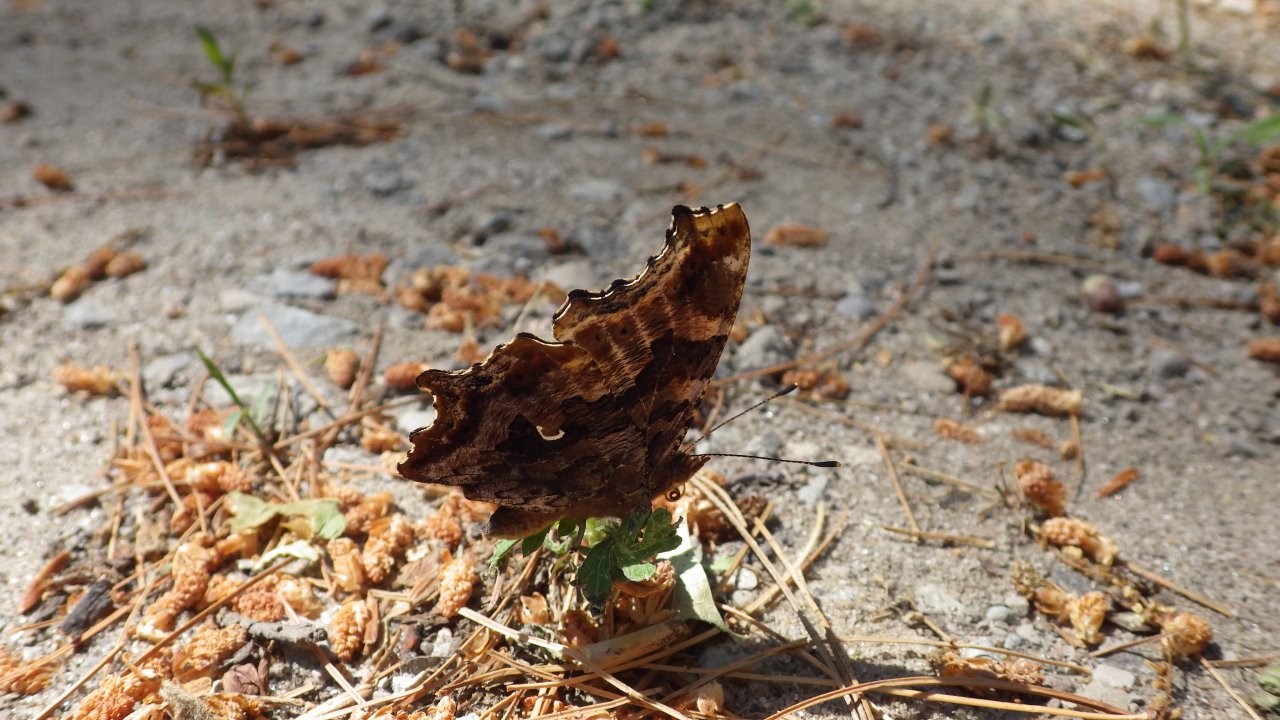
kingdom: Animalia
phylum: Arthropoda
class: Insecta
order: Lepidoptera
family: Nymphalidae
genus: Polygonia
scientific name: Polygonia comma
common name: Eastern Comma
